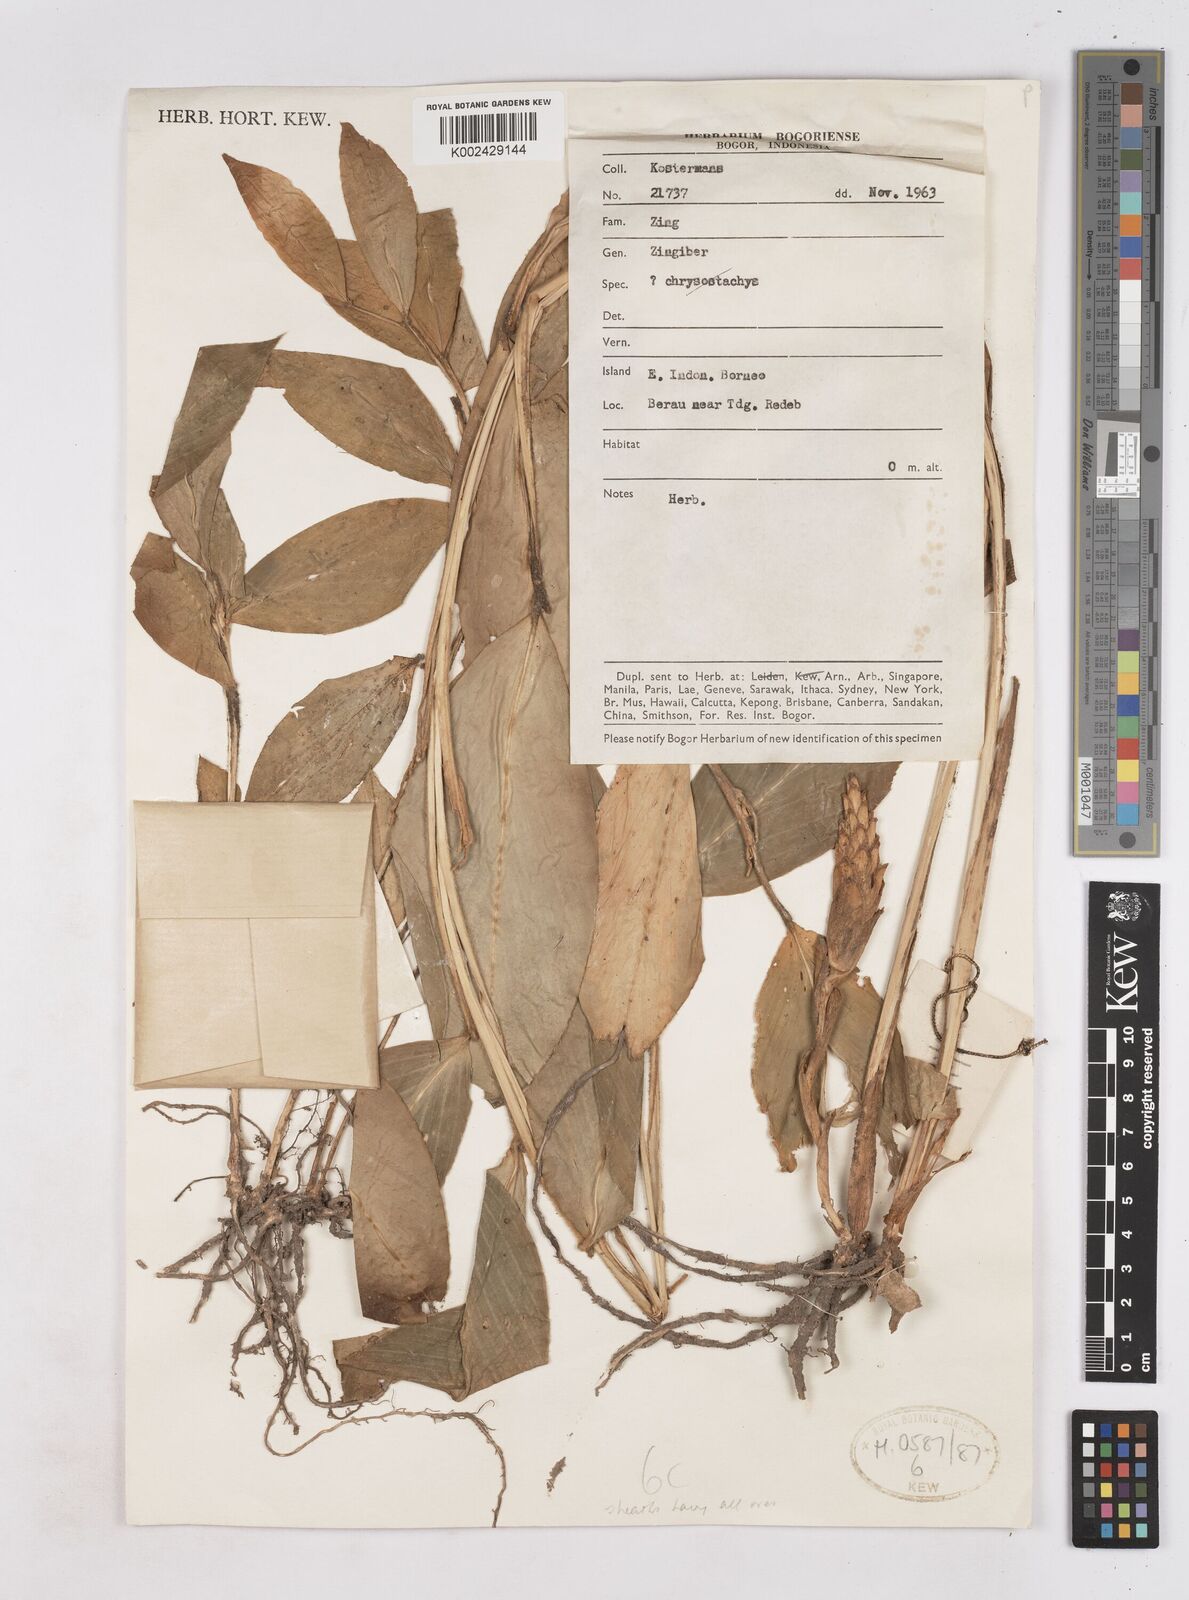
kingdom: Plantae
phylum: Tracheophyta
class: Liliopsida
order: Zingiberales
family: Zingiberaceae
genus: Zingiber
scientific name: Zingiber
